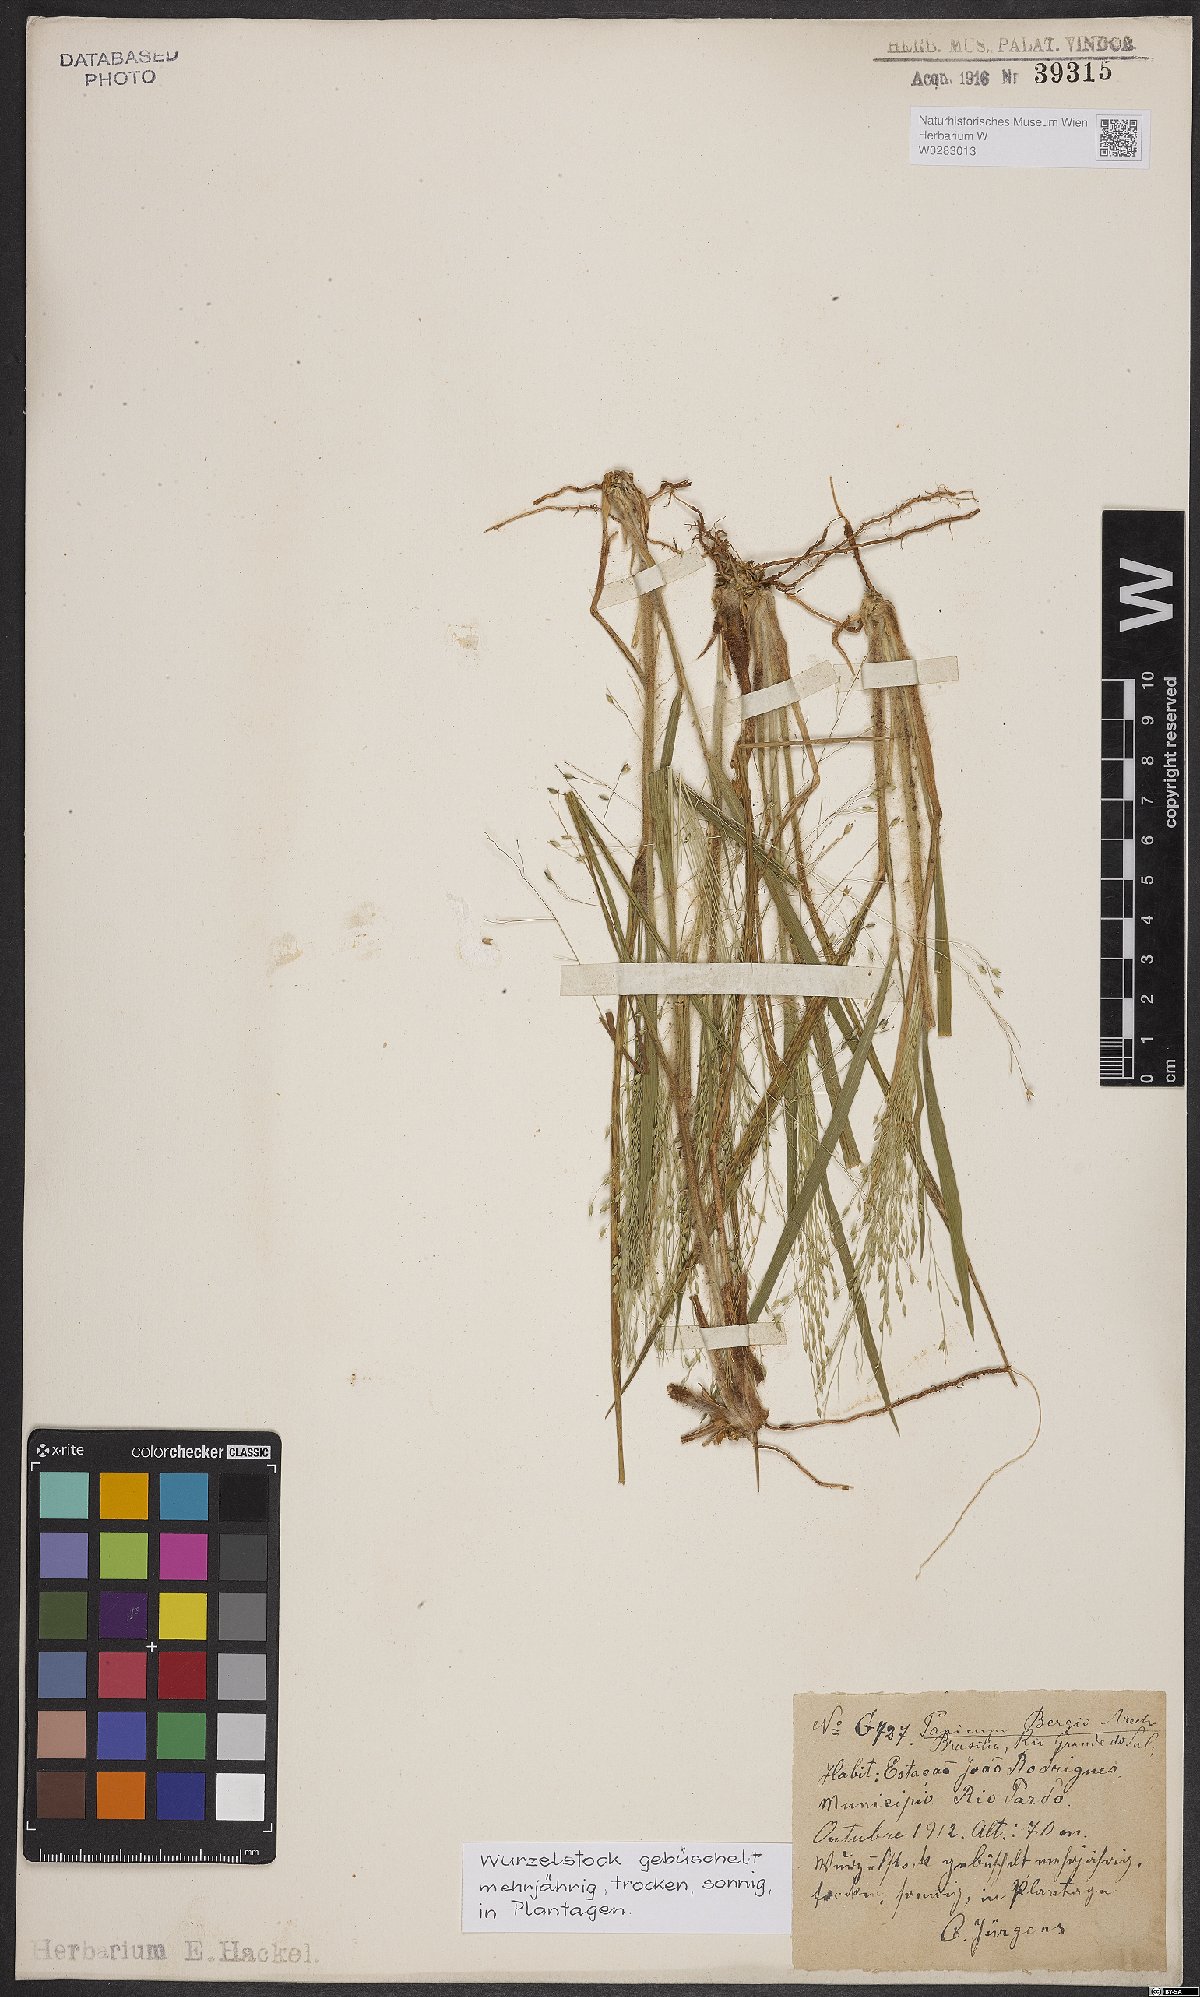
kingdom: Plantae
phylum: Tracheophyta
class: Liliopsida
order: Poales
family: Poaceae
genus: Panicum
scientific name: Panicum bergii
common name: Berg's panicgrass
